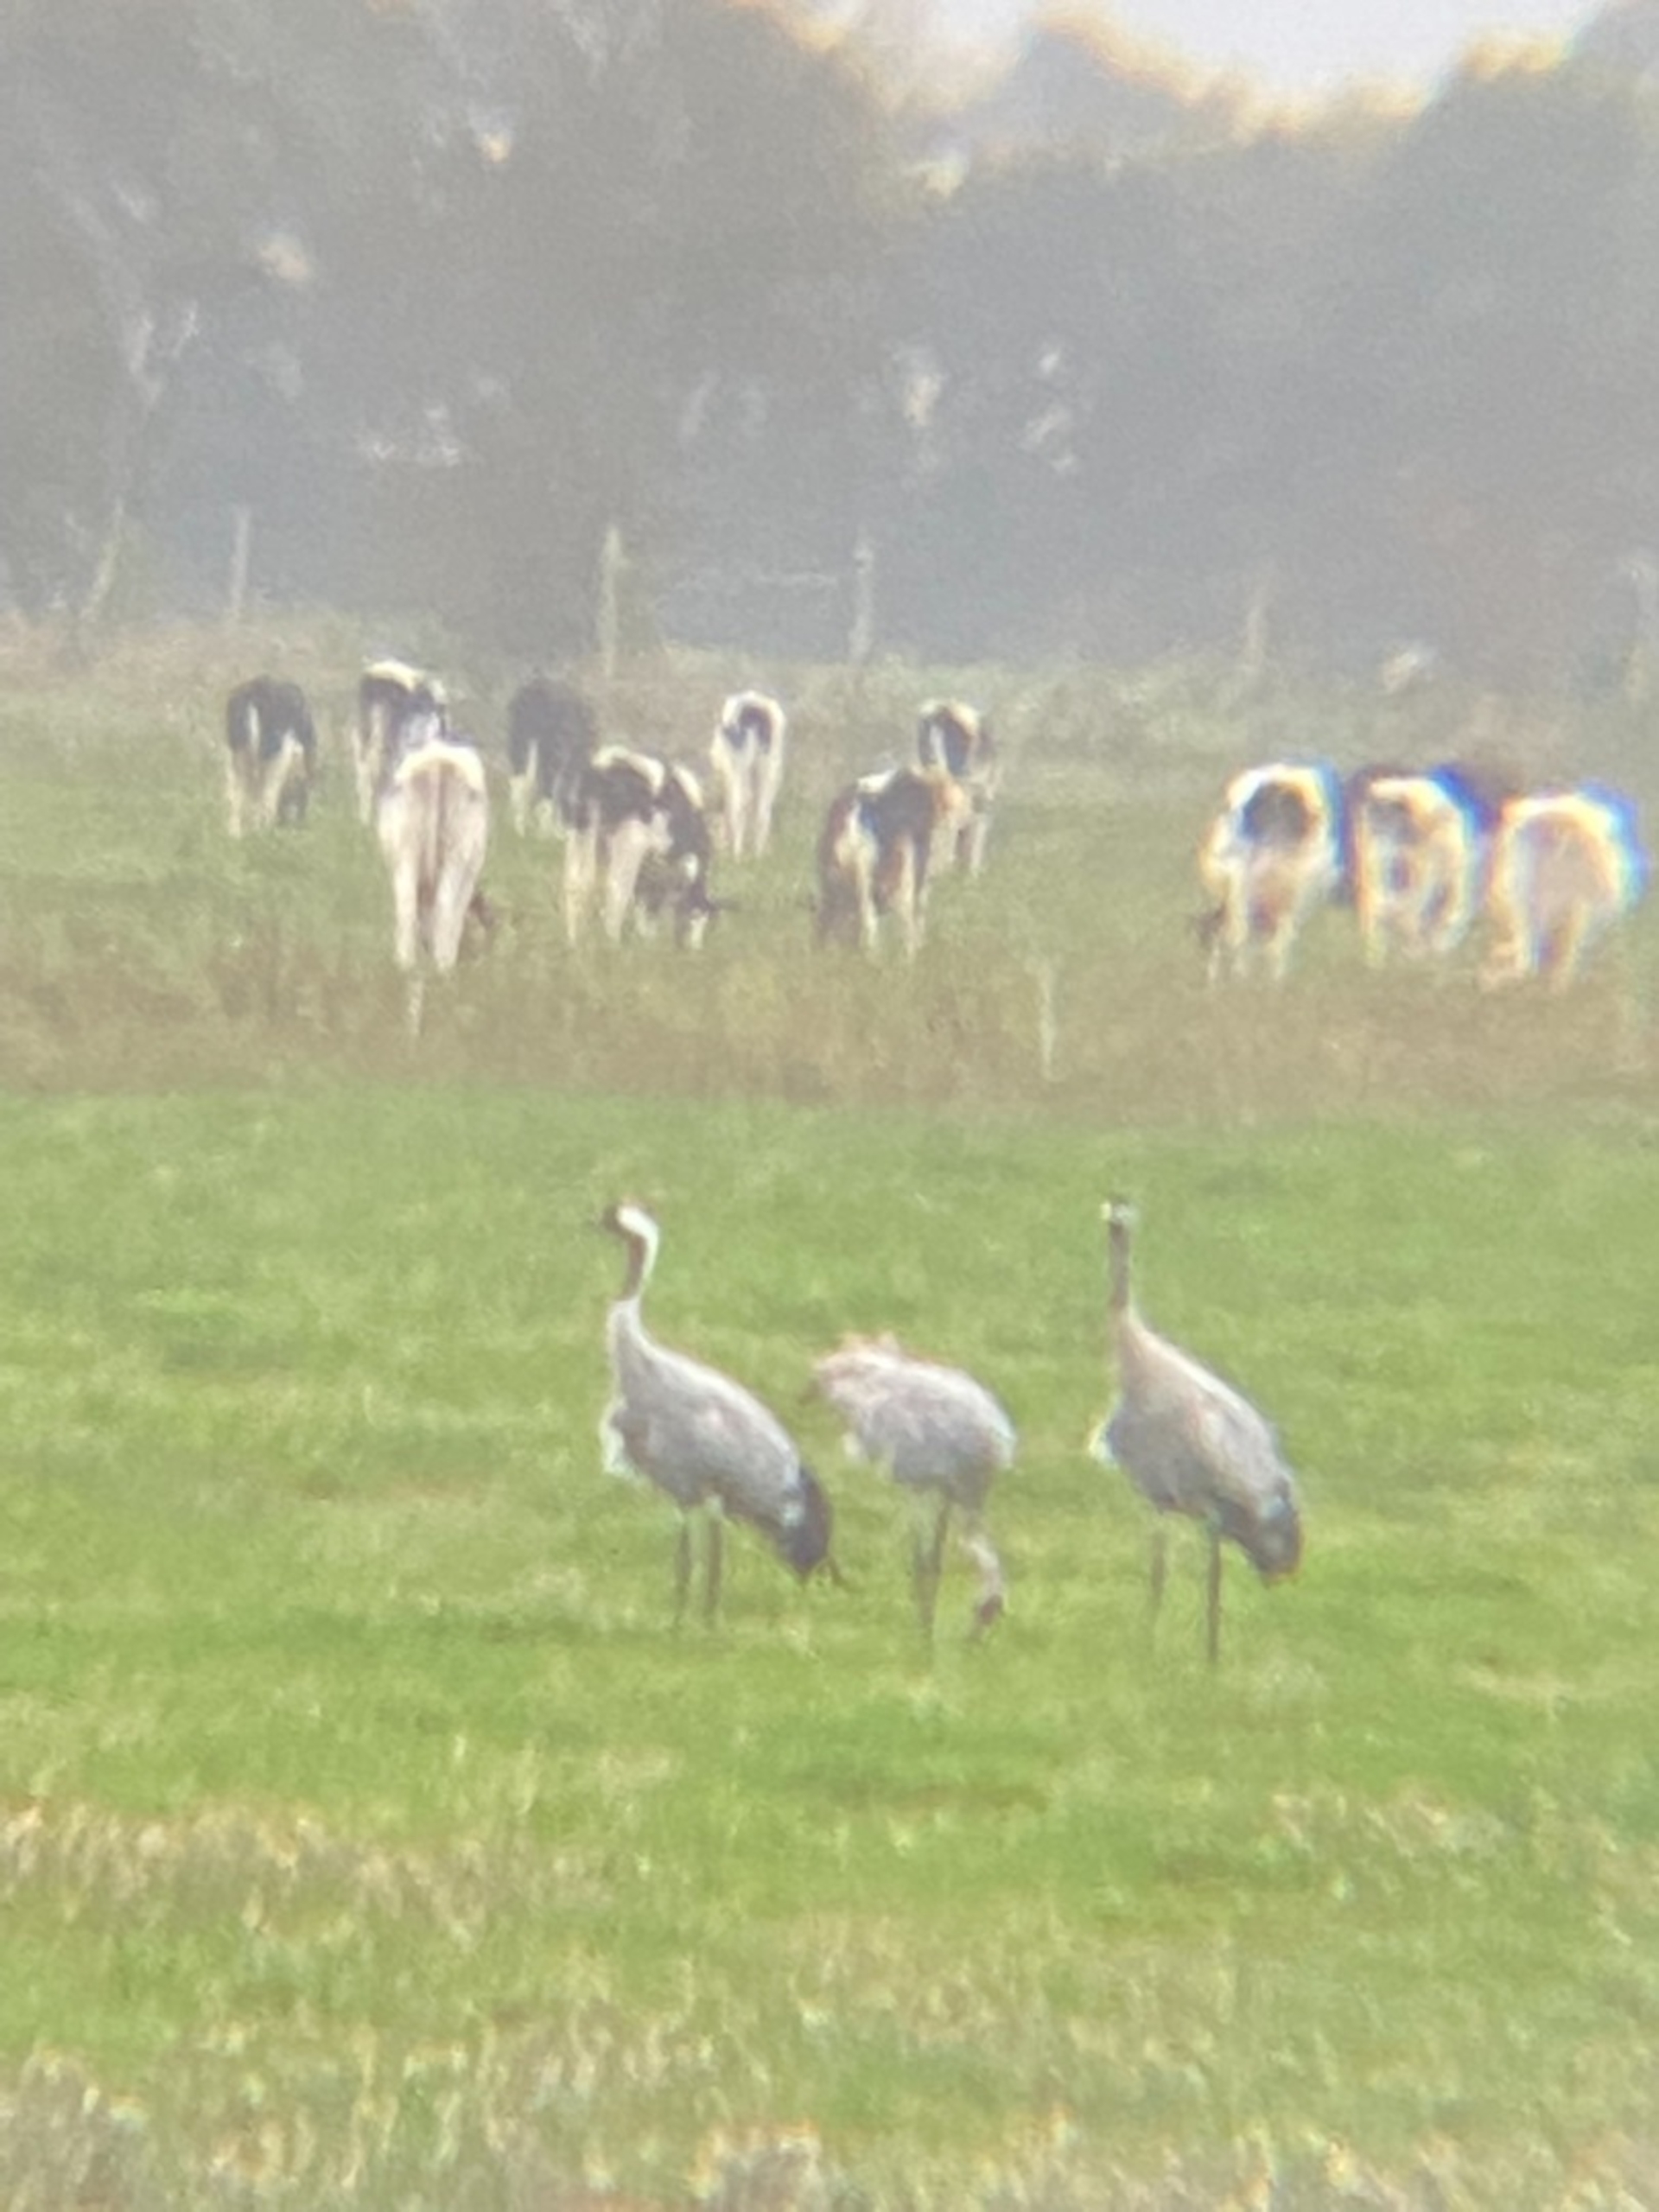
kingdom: Animalia
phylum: Chordata
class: Aves
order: Gruiformes
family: Gruidae
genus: Grus
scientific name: Grus grus
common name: Trane
